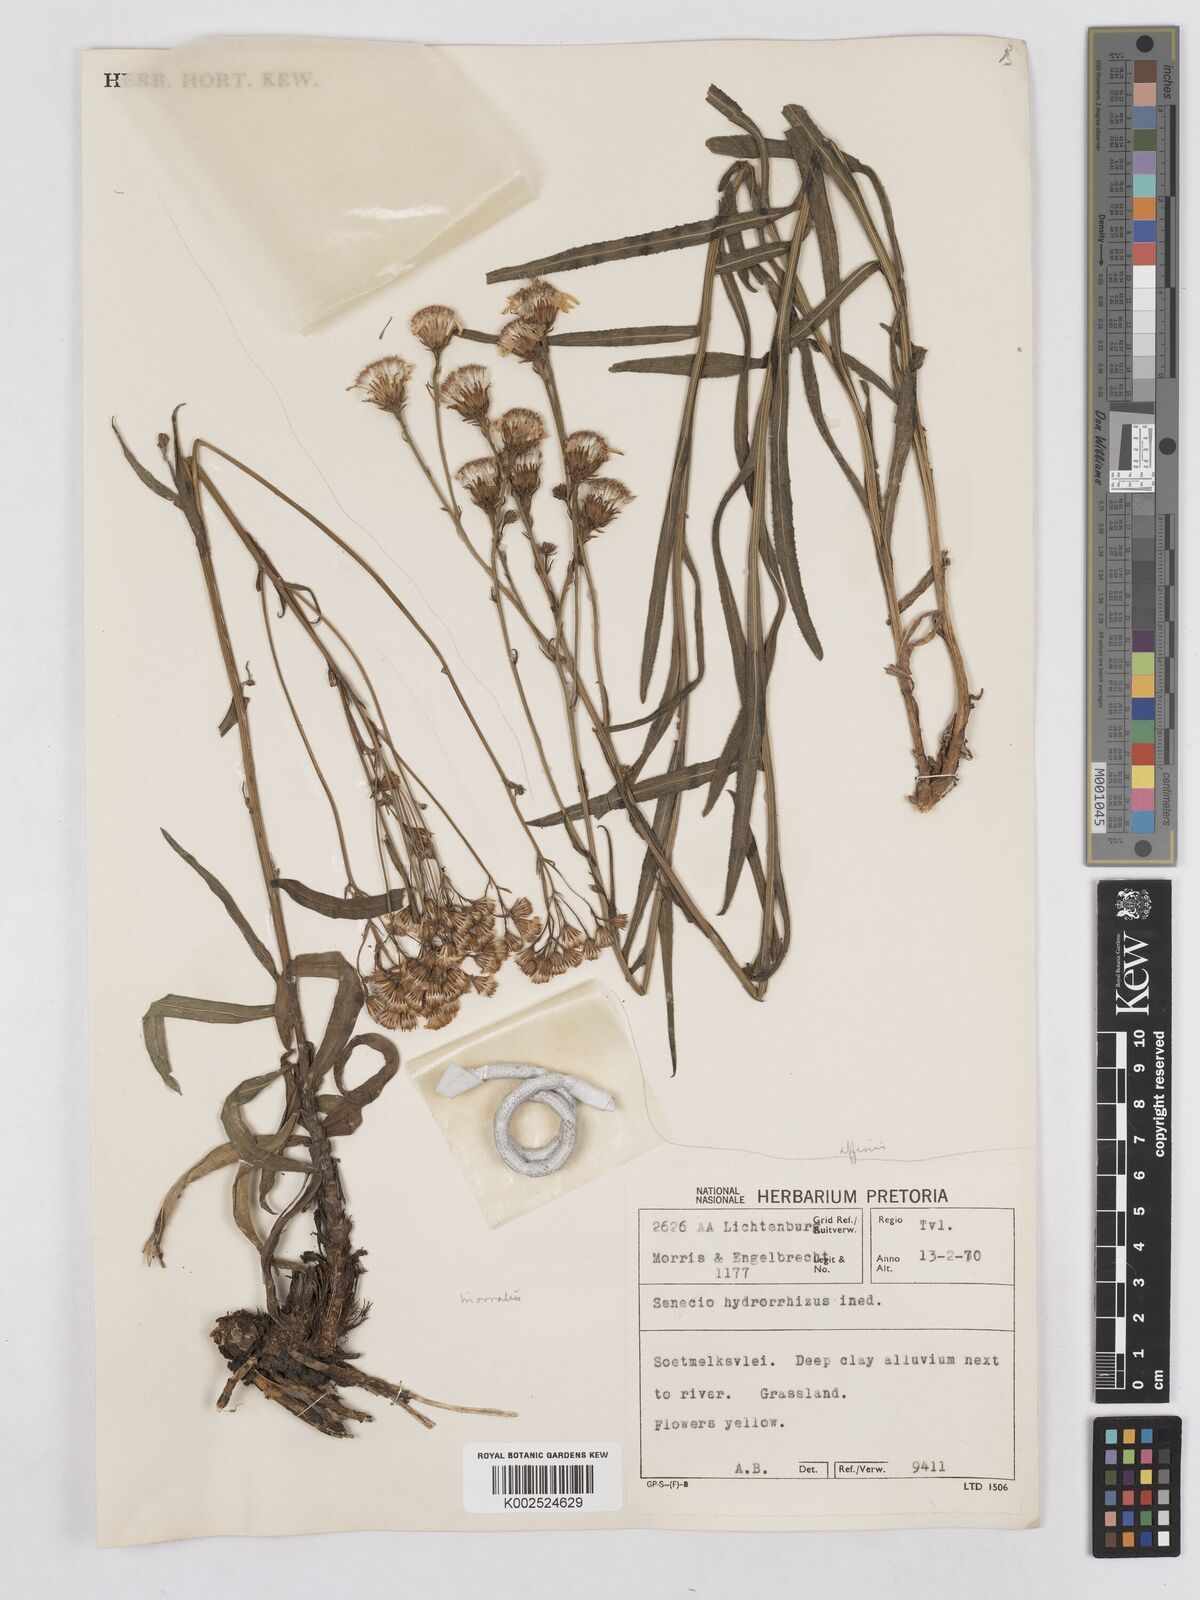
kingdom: Plantae
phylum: Tracheophyta
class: Magnoliopsida
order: Asterales
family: Asteraceae
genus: Senecio
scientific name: Senecio inornatus
